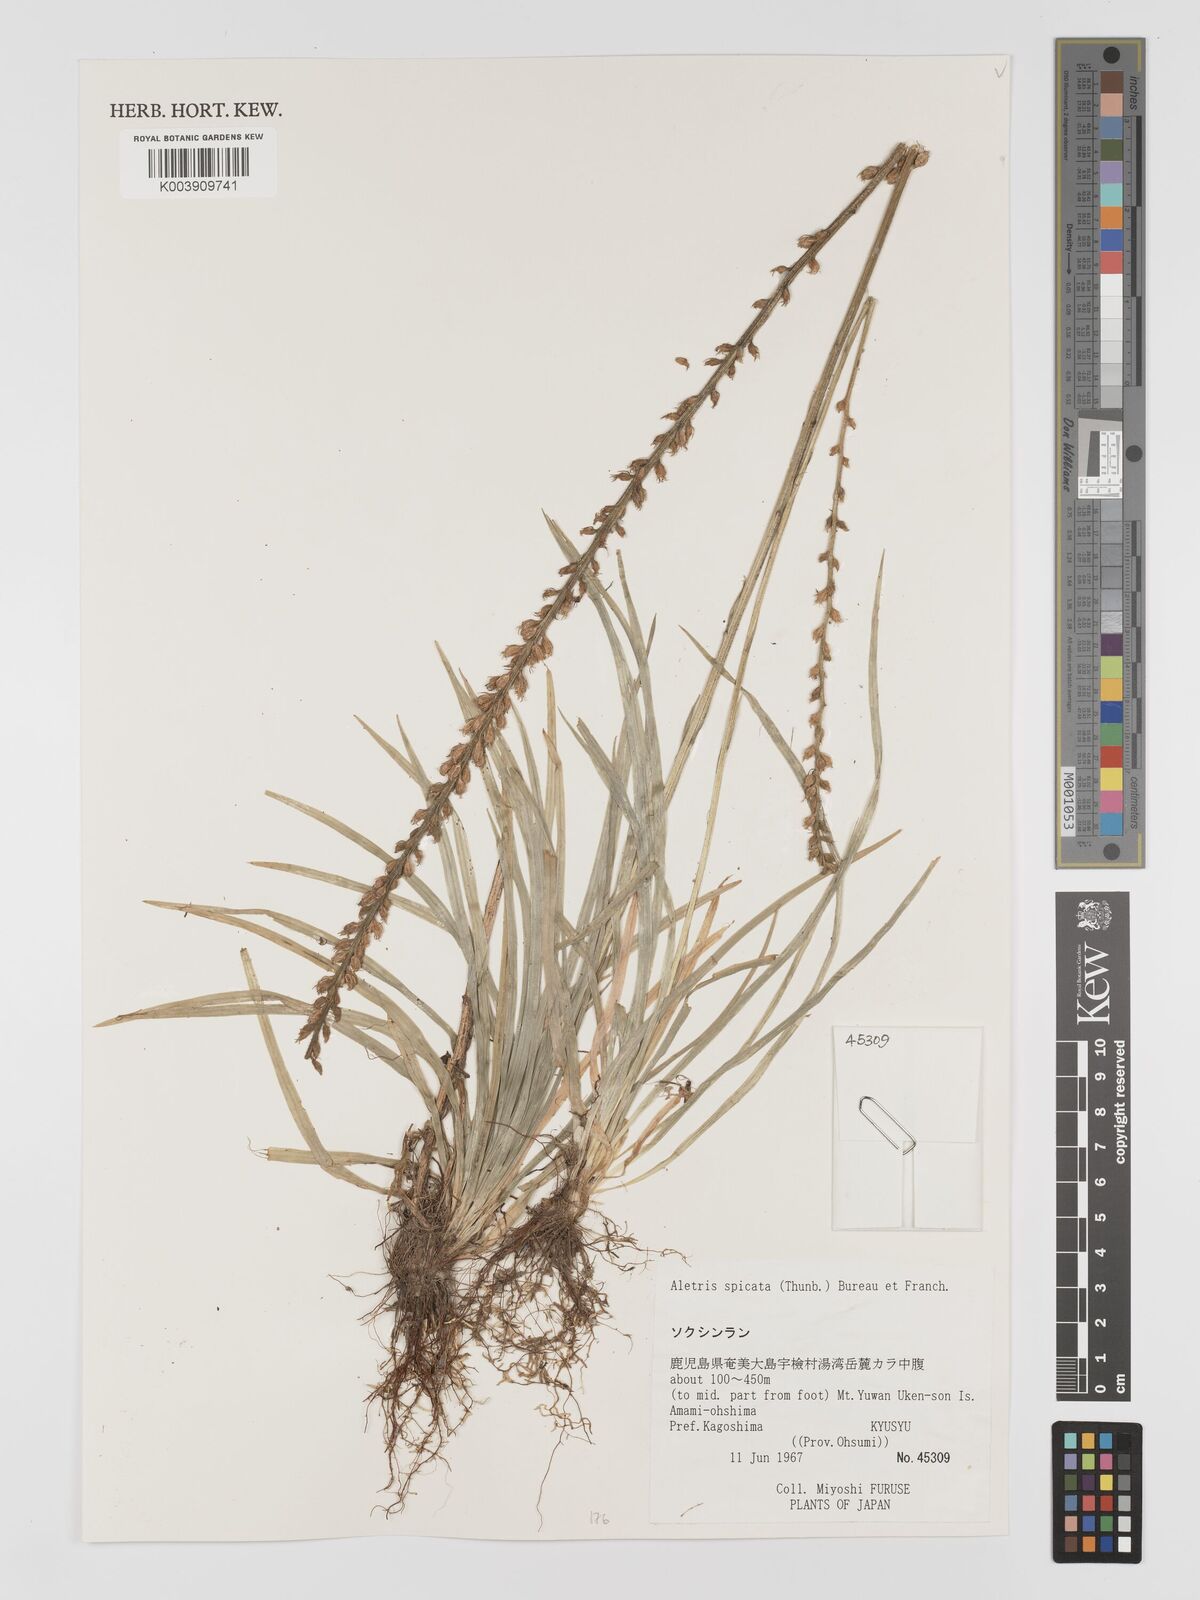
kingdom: Plantae
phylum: Tracheophyta
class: Liliopsida
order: Dioscoreales
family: Nartheciaceae
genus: Aletris
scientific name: Aletris spicata
